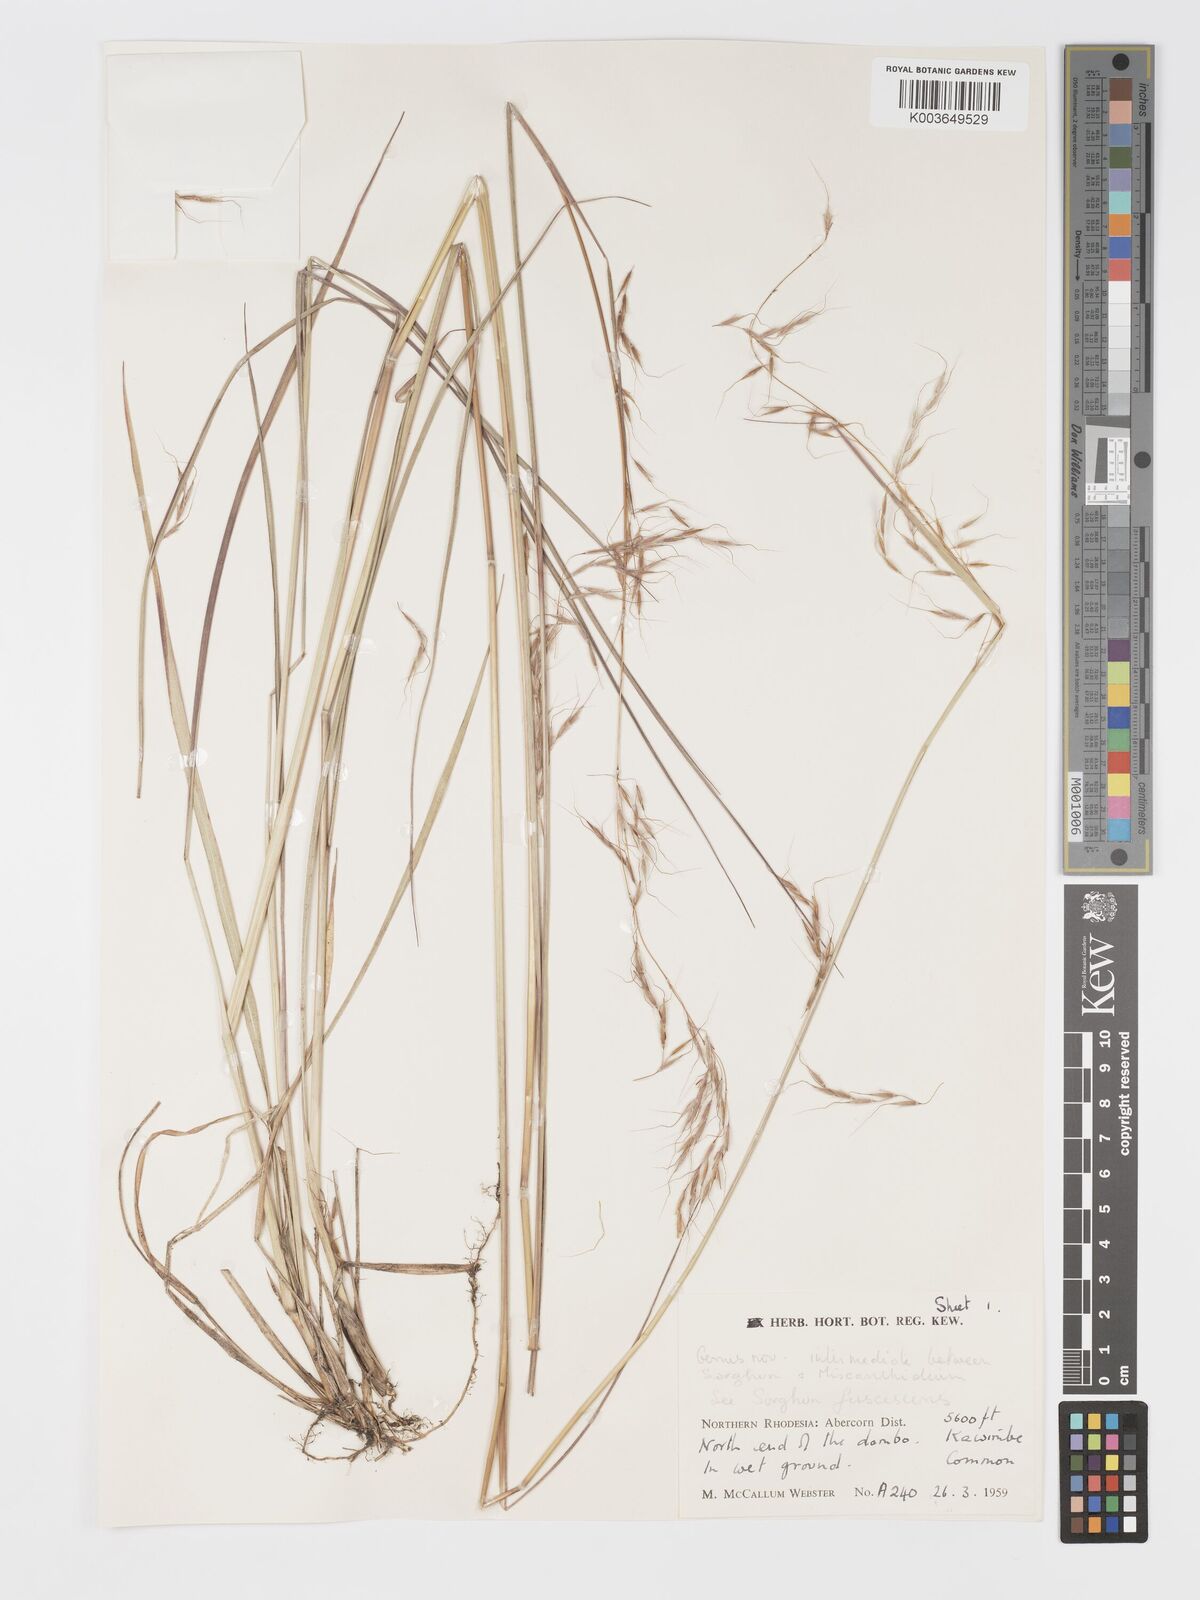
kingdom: Plantae
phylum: Tracheophyta
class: Liliopsida
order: Poales
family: Poaceae
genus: Sorghastrum
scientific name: Sorghastrum nudipes
